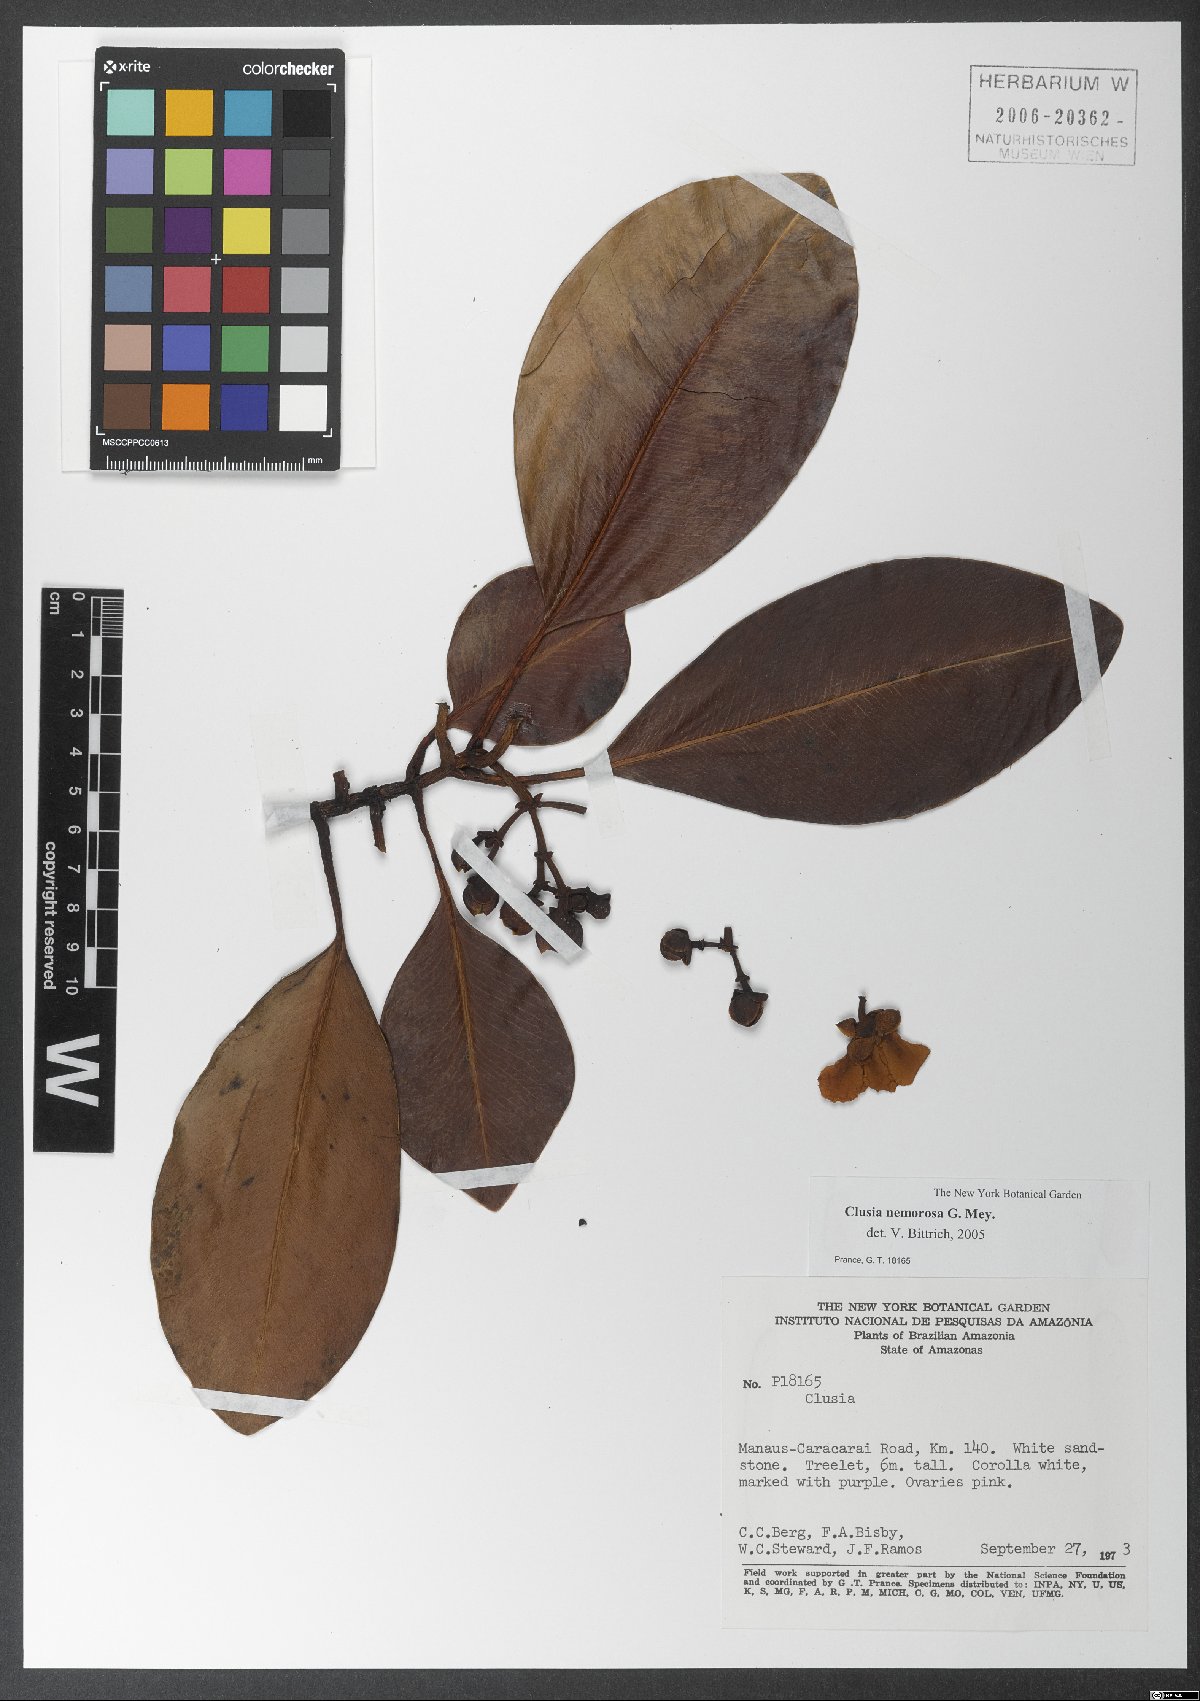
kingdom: Plantae
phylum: Tracheophyta
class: Magnoliopsida
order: Malpighiales
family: Clusiaceae
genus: Clusia
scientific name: Clusia nemorosa
